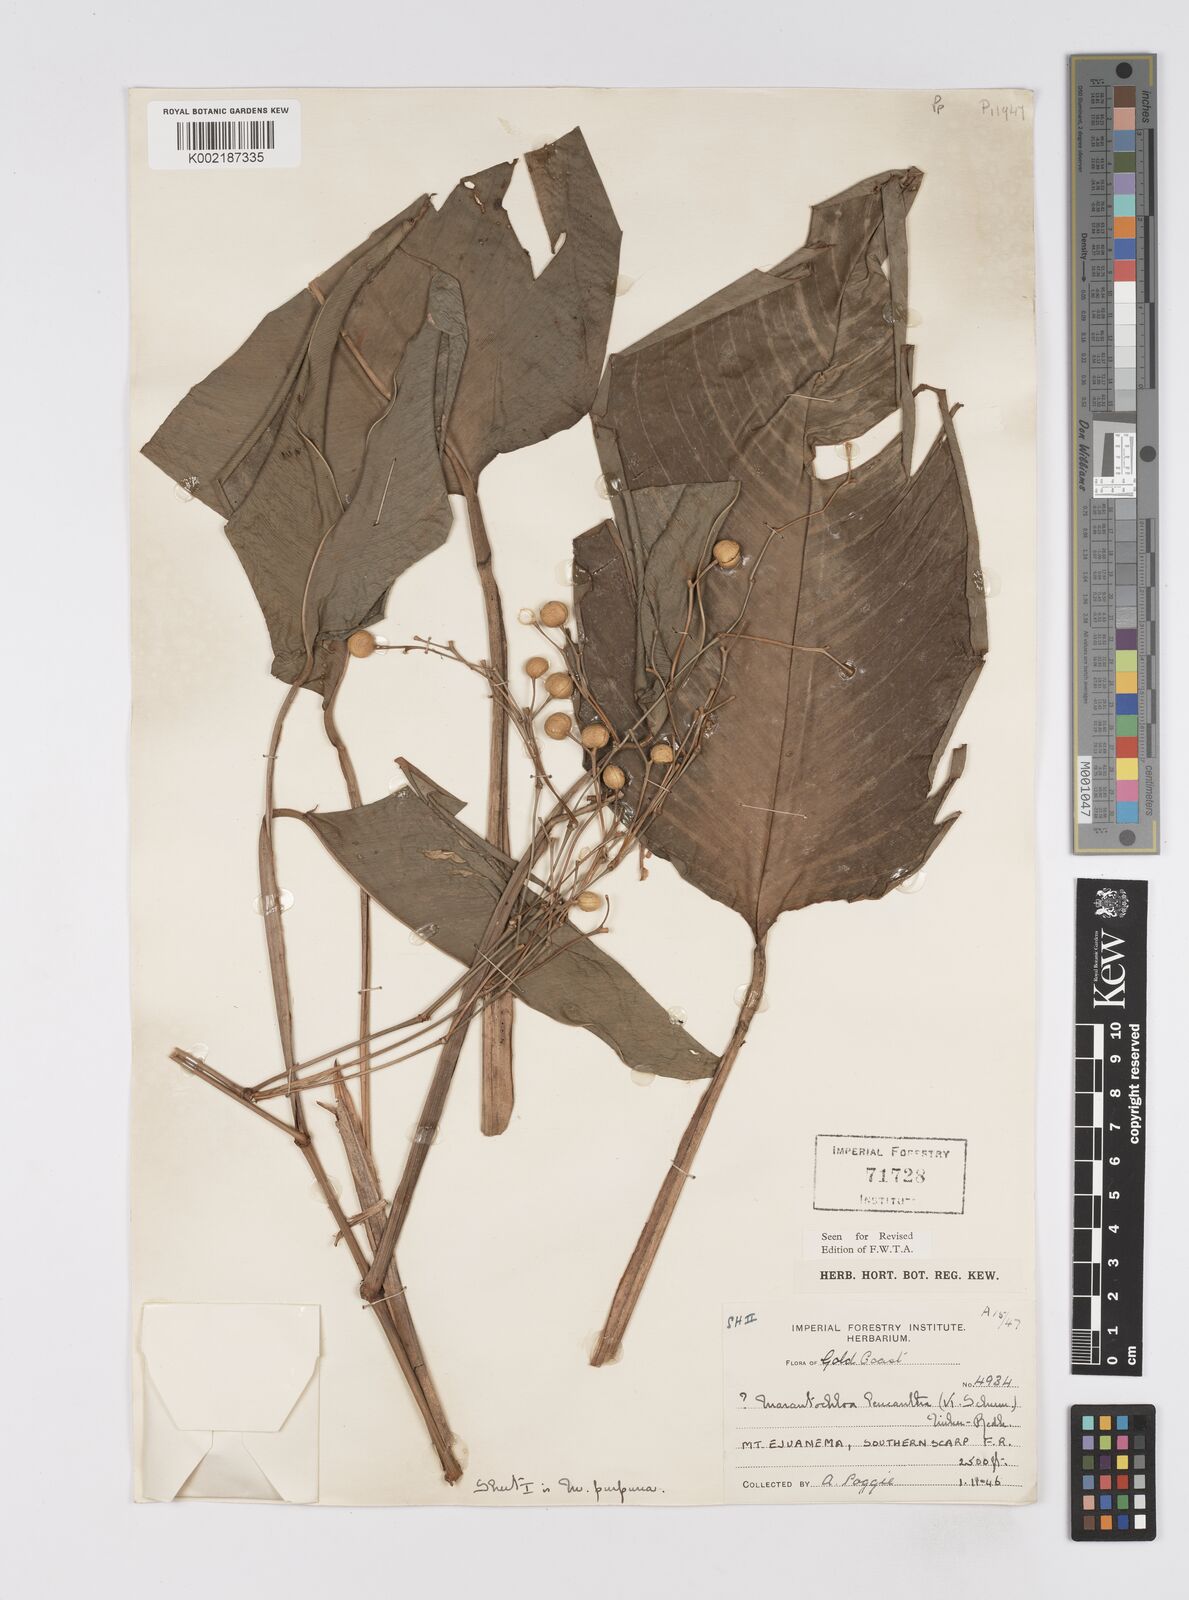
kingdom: Plantae
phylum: Tracheophyta
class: Liliopsida
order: Zingiberales
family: Marantaceae
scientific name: Marantaceae
